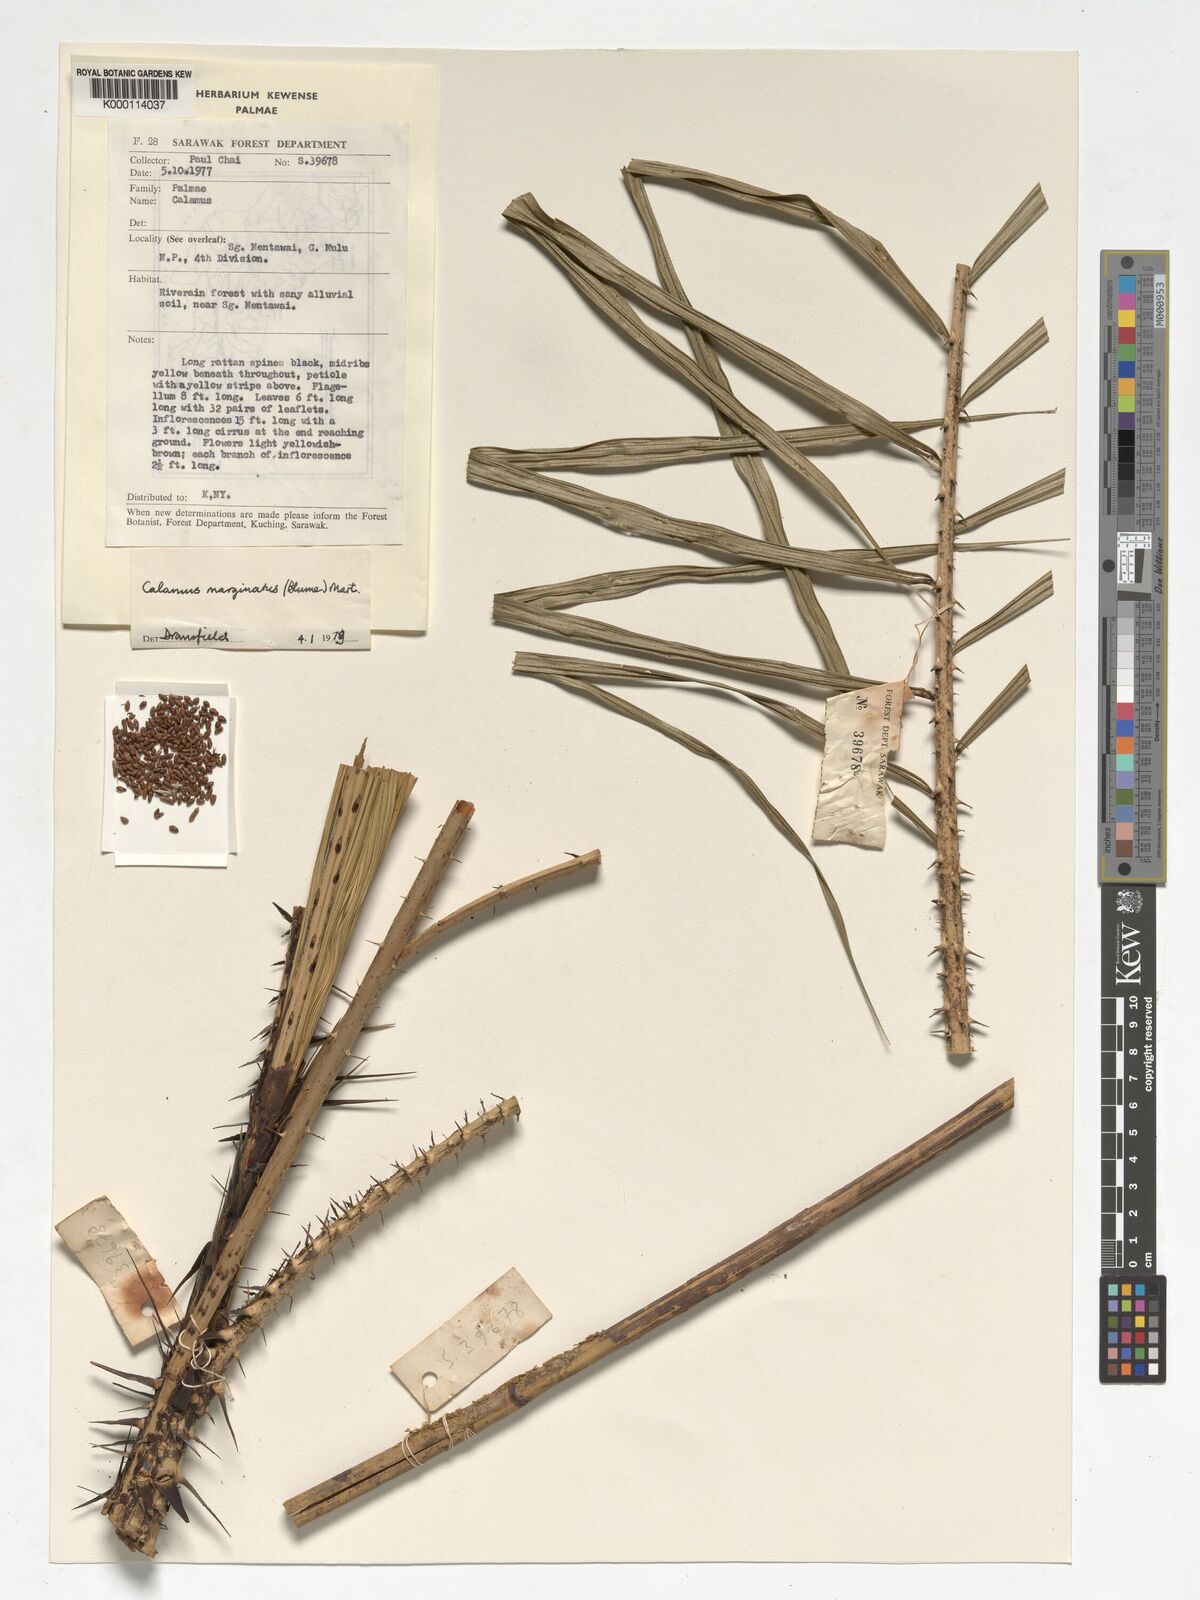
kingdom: Plantae
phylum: Tracheophyta
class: Liliopsida
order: Arecales
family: Arecaceae
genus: Calamus
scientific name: Calamus
